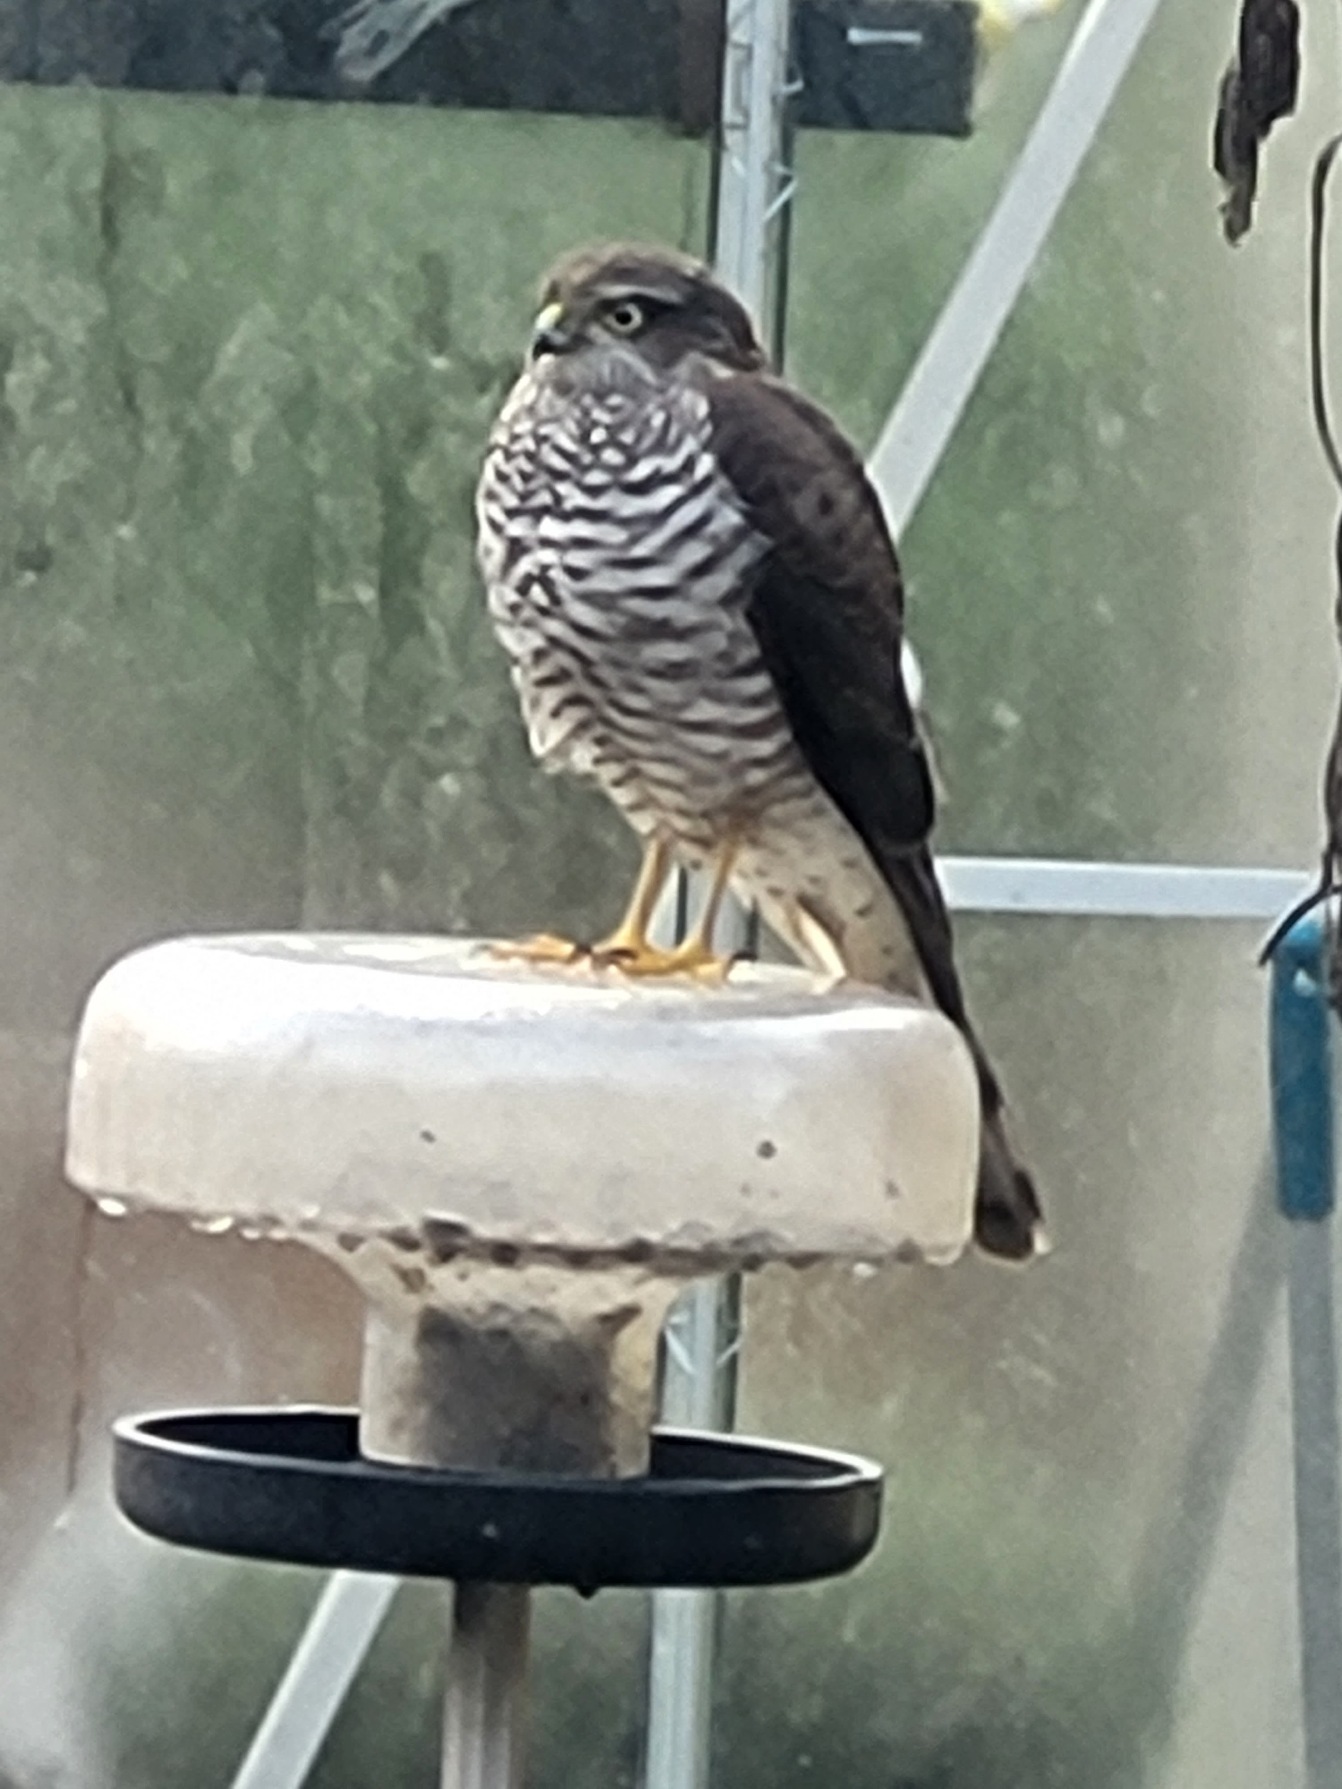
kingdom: Animalia
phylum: Chordata
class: Aves
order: Accipitriformes
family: Accipitridae
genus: Accipiter
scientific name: Accipiter nisus
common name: Spurvehøg
